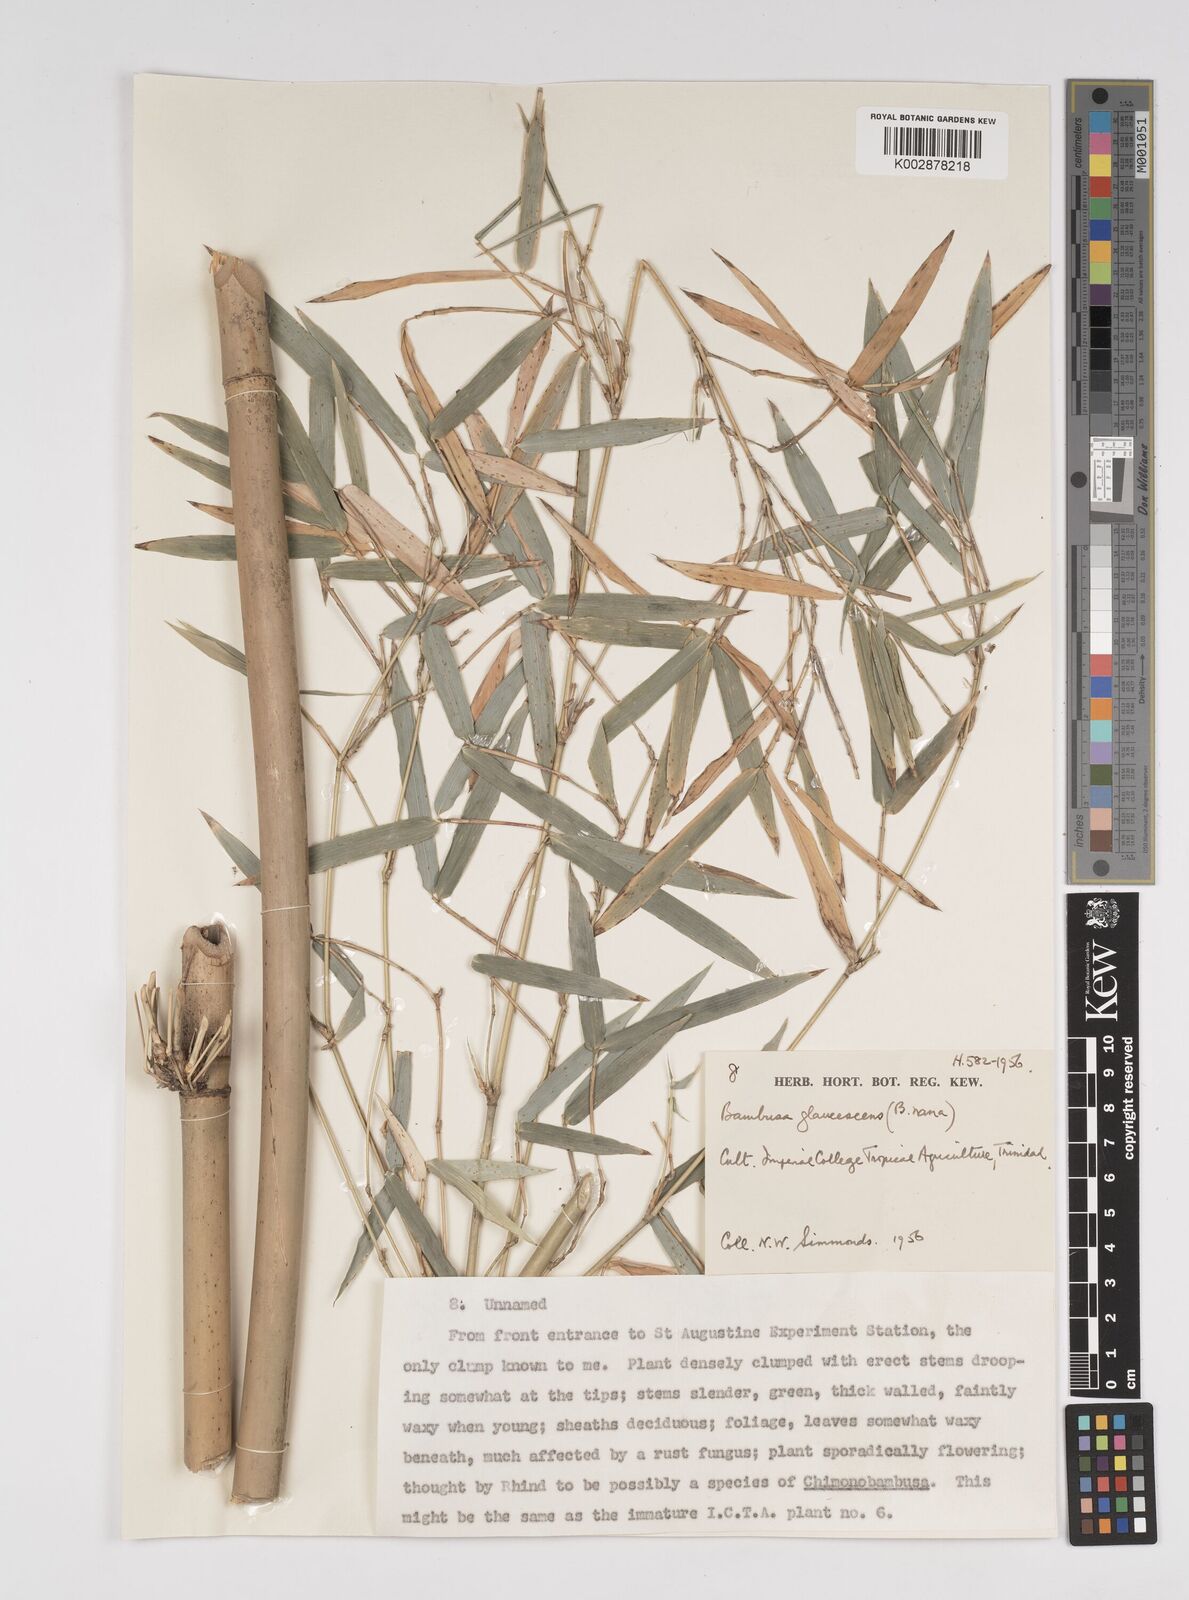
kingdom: Plantae
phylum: Tracheophyta
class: Liliopsida
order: Poales
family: Poaceae
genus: Bambusa
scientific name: Bambusa multiplex
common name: Hedge bamboo
